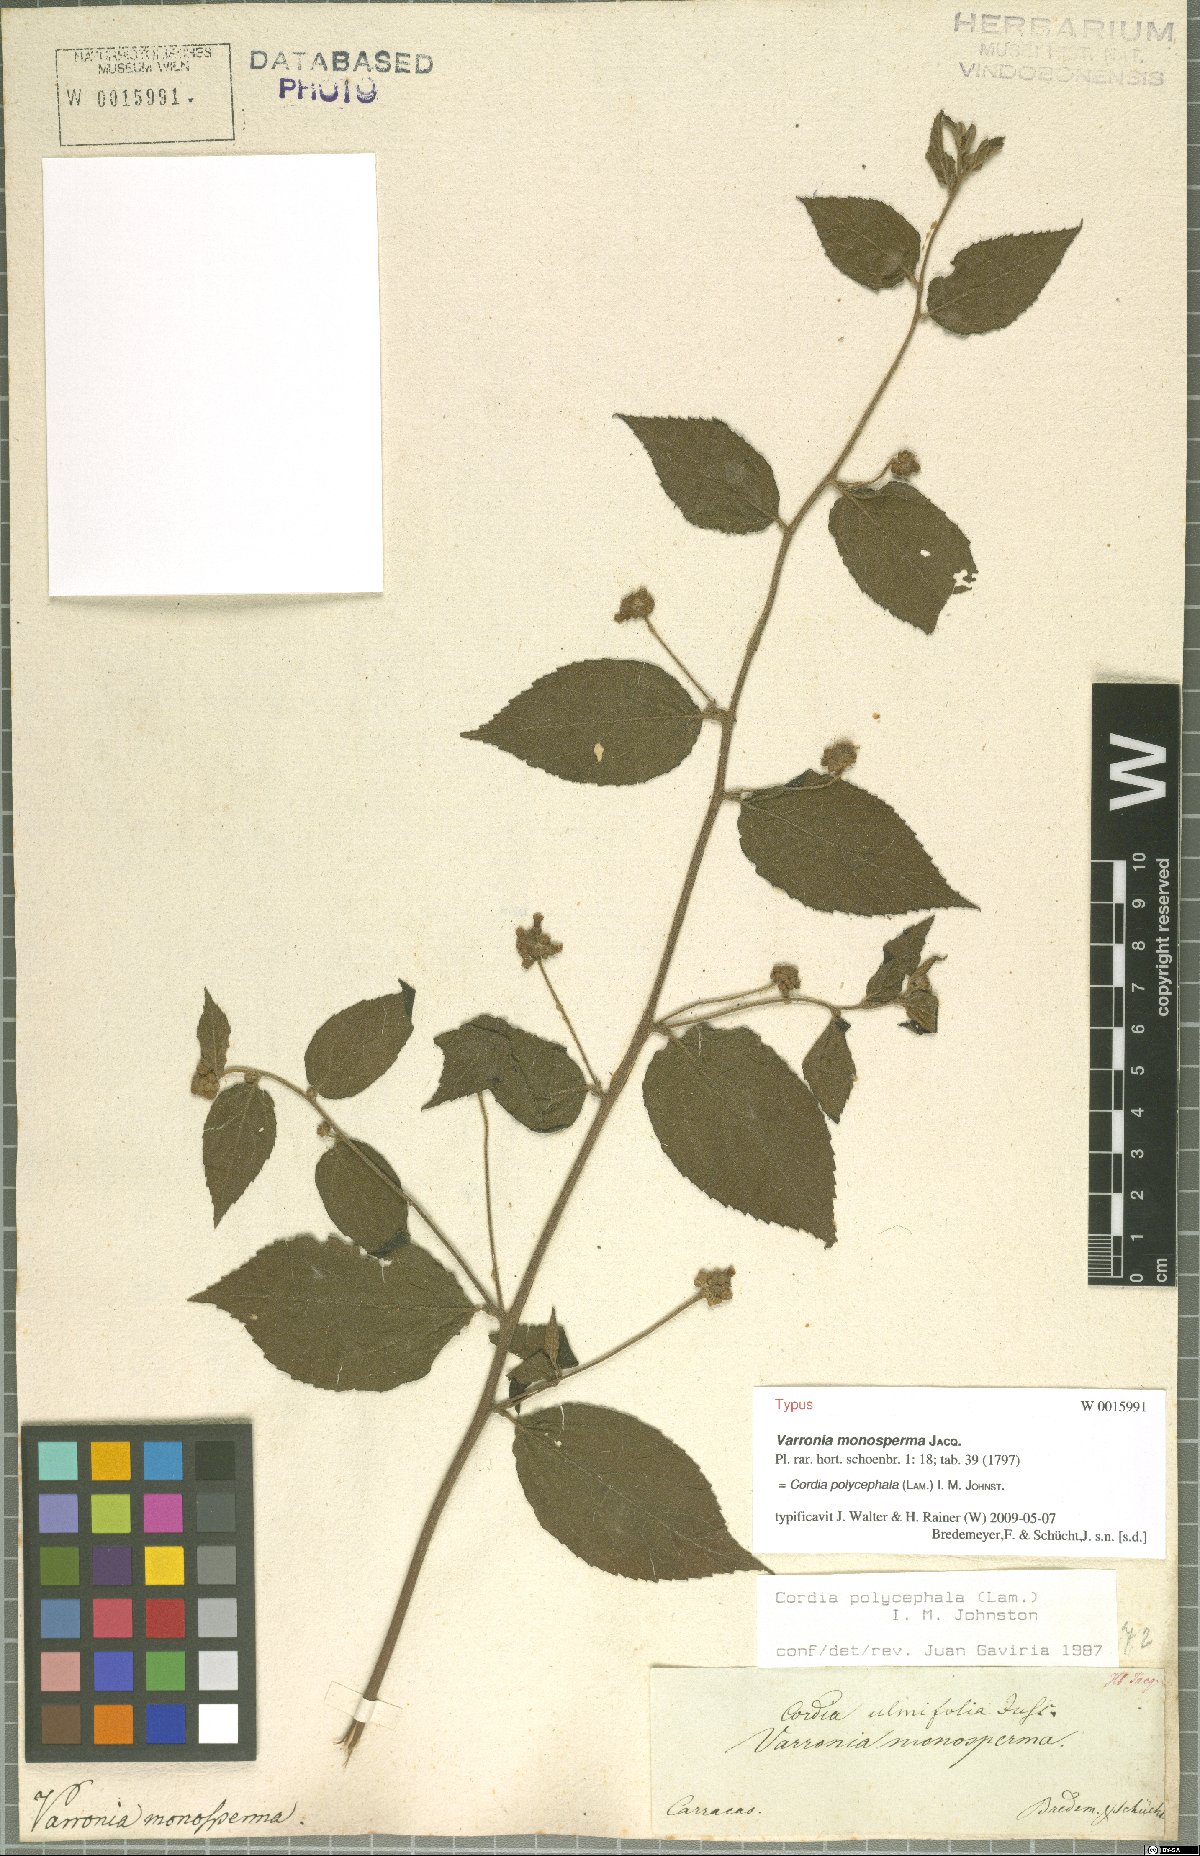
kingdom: Plantae
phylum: Tracheophyta
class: Magnoliopsida
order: Boraginales
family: Cordiaceae
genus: Varronia
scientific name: Varronia polycephala
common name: Black-sage
